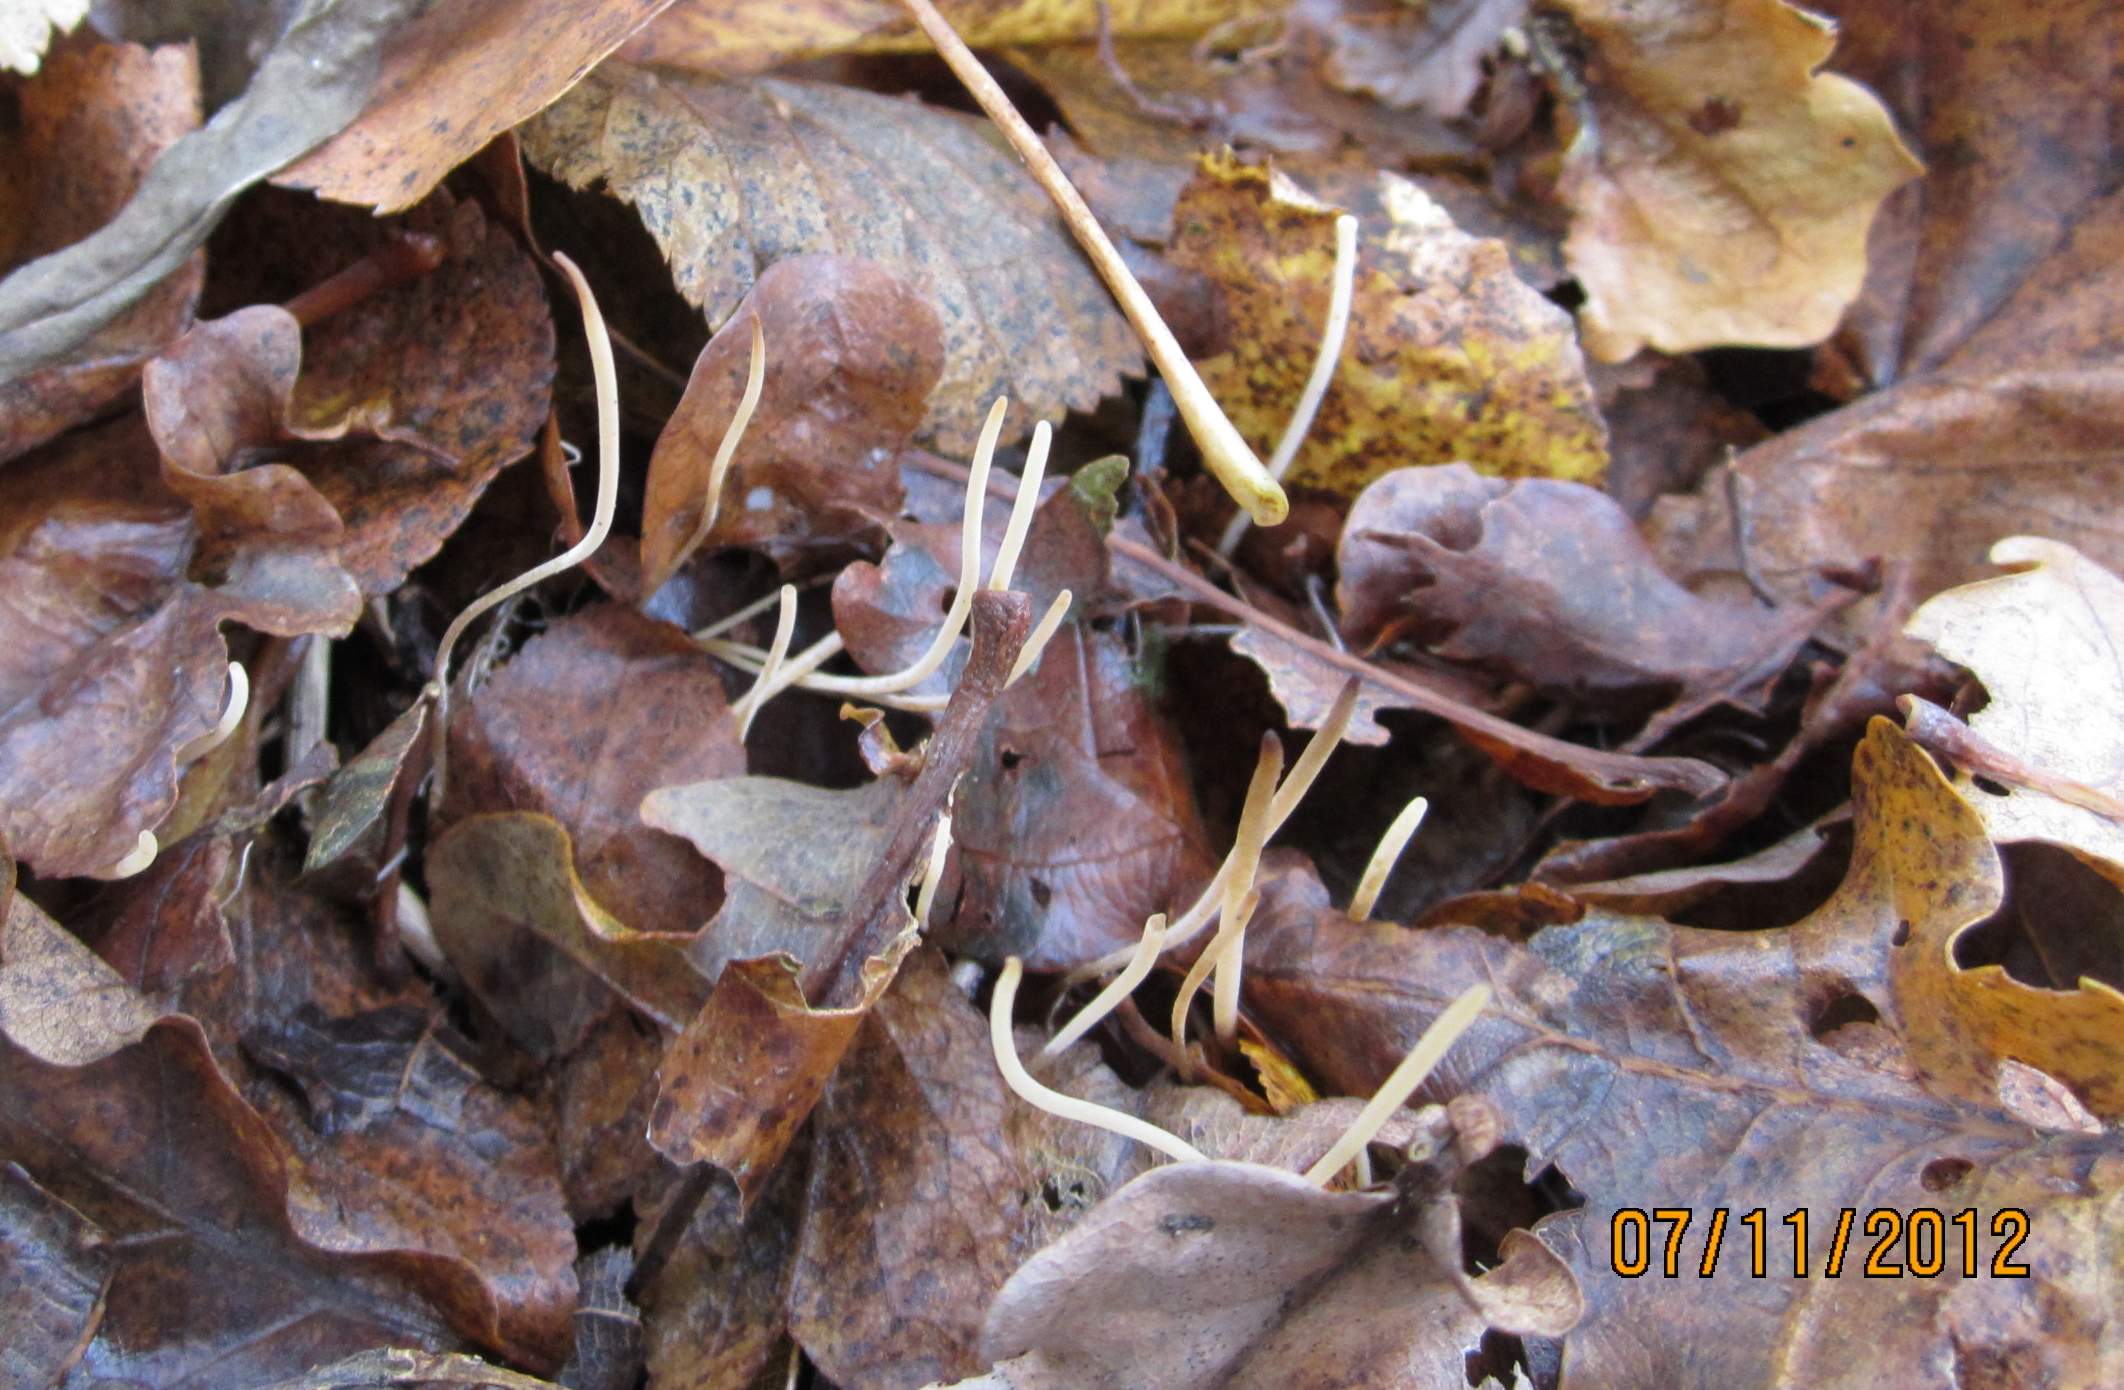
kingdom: Fungi
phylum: Basidiomycota
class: Agaricomycetes
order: Agaricales
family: Typhulaceae
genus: Macrotyphula
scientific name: Macrotyphula phacorrhiza
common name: lang rørkølle
